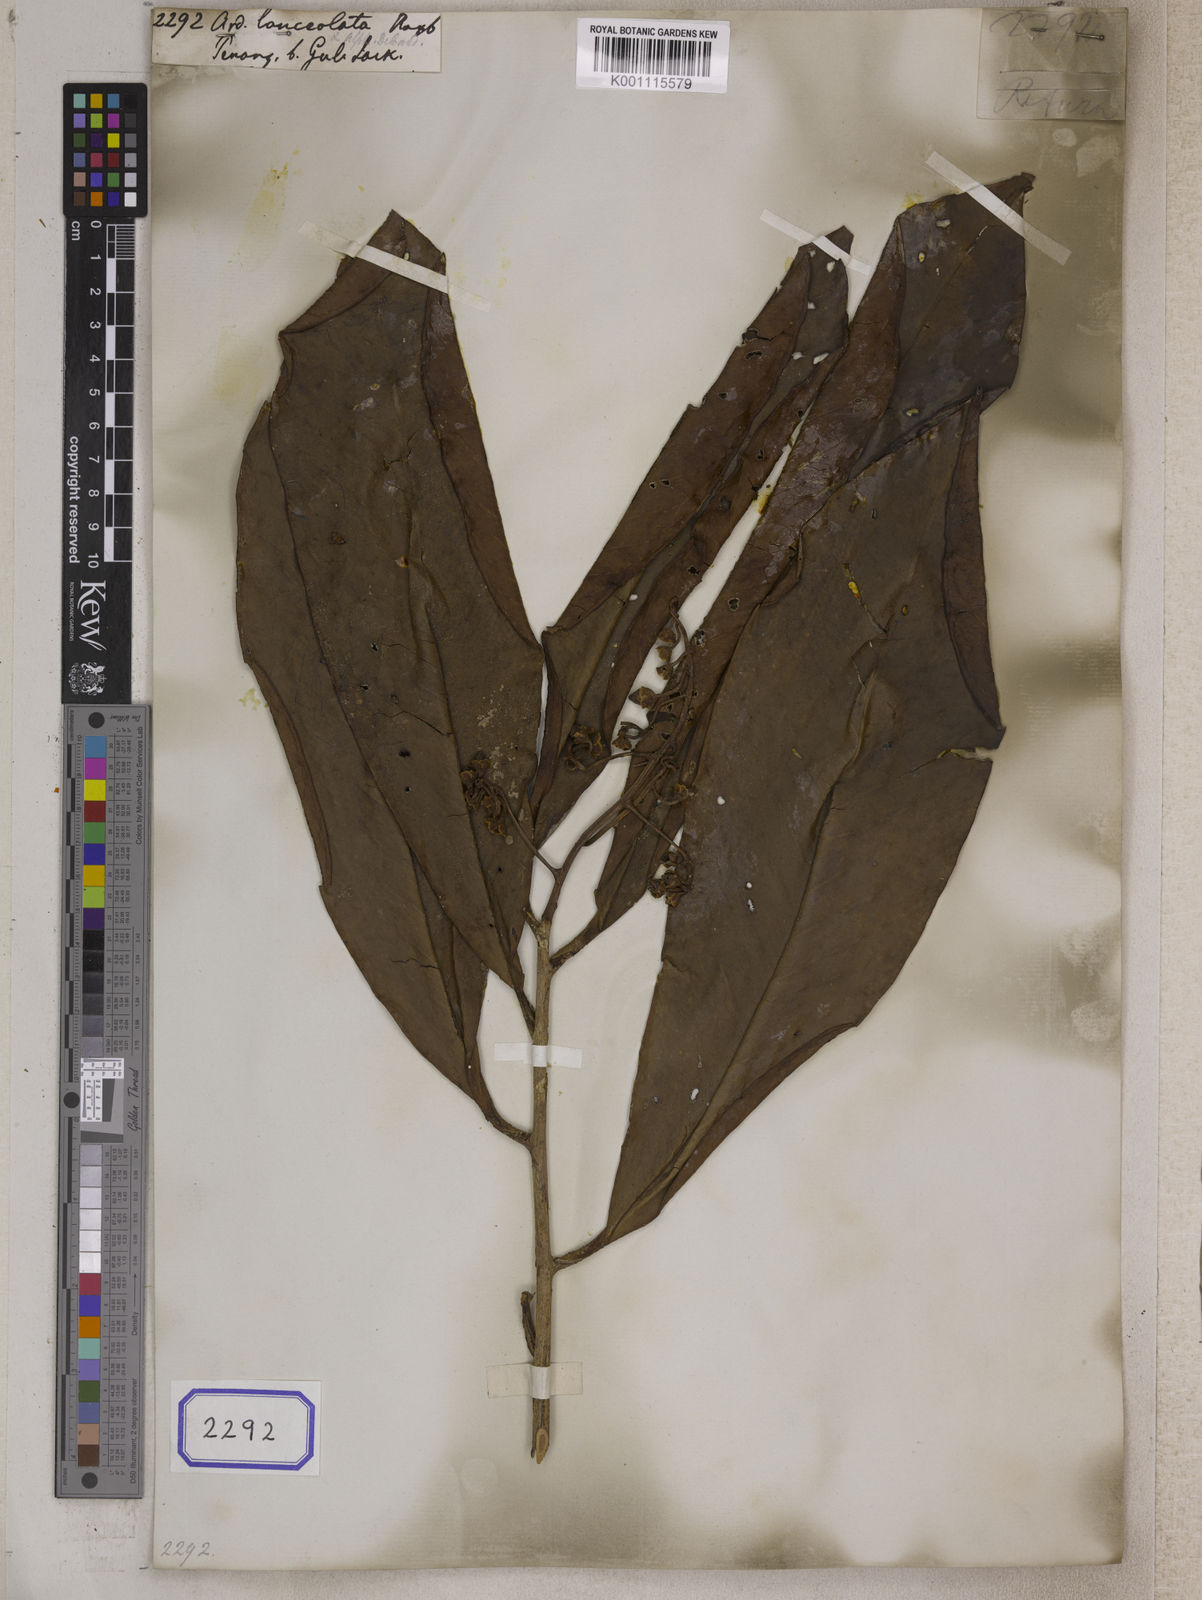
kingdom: Plantae
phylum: Tracheophyta
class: Magnoliopsida
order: Ericales
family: Primulaceae
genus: Ardisia
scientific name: Ardisia purpurea
